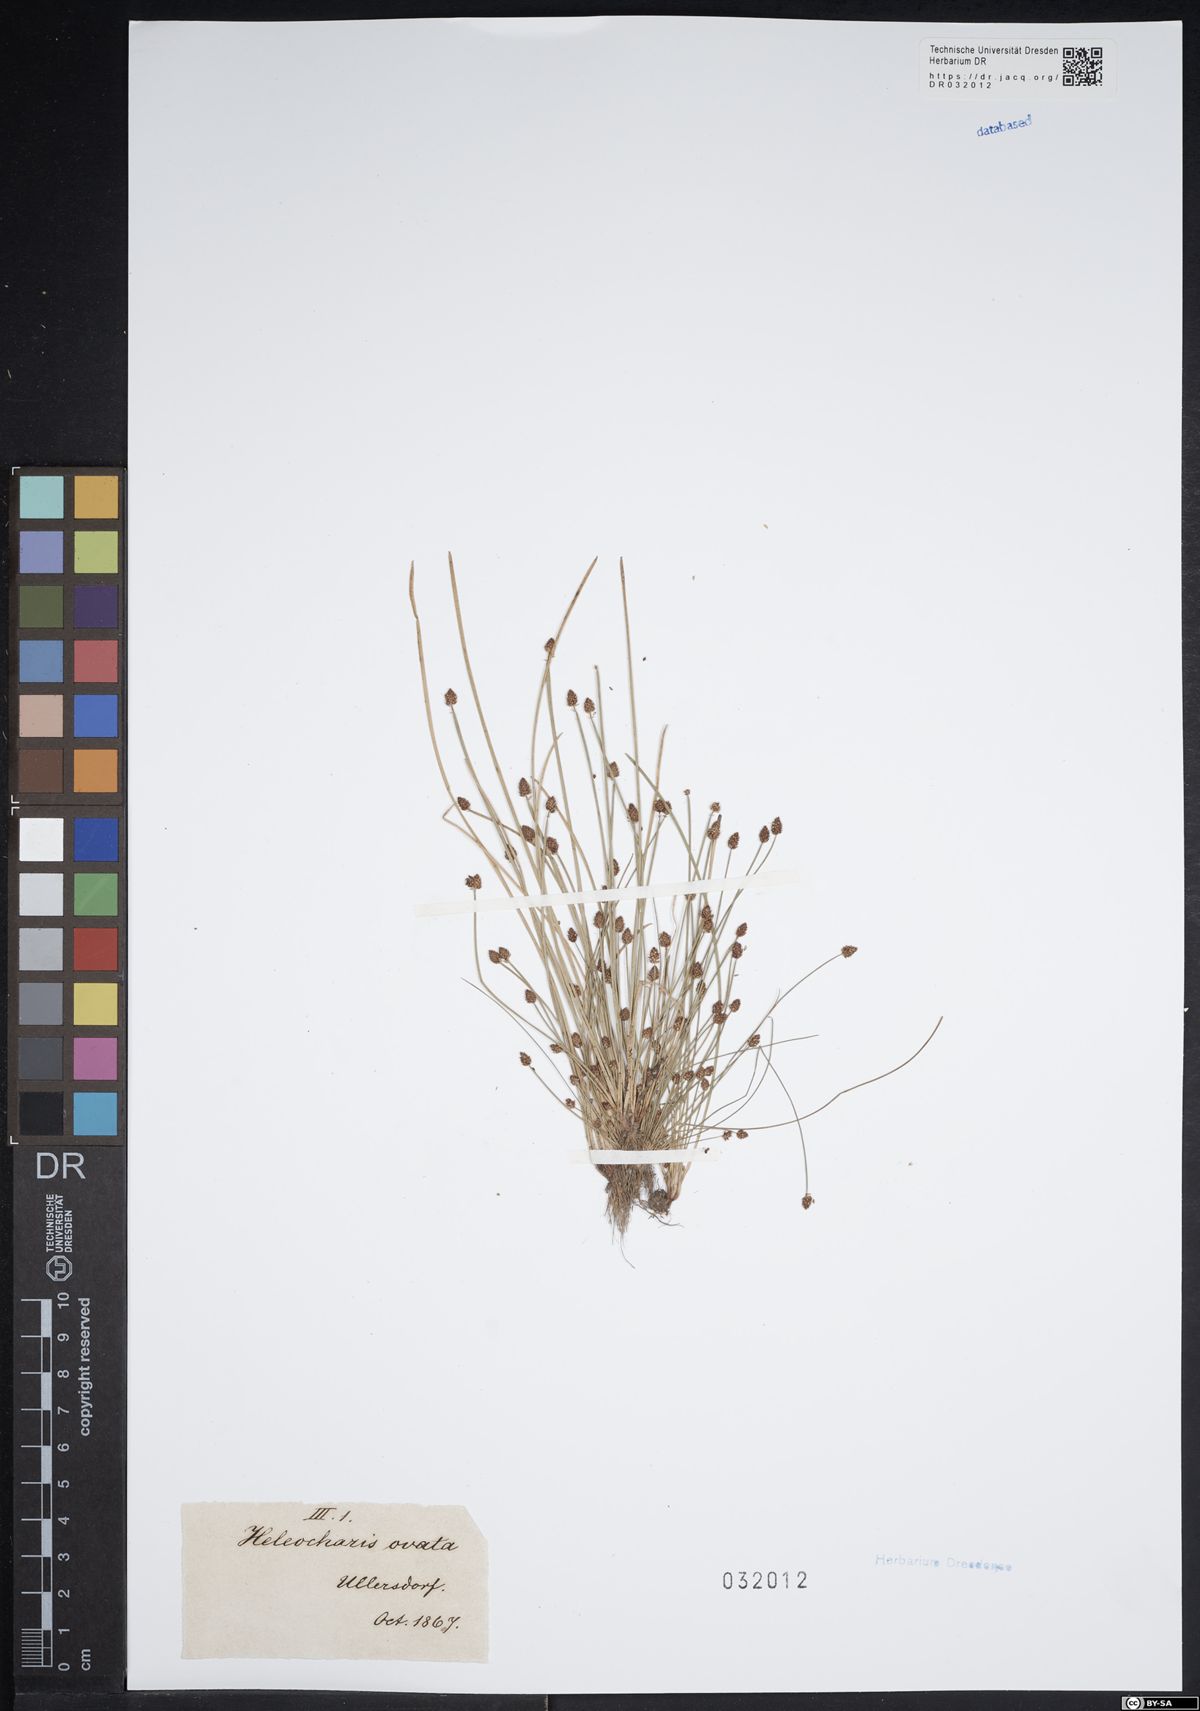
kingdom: Plantae
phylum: Tracheophyta
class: Liliopsida
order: Poales
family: Cyperaceae
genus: Eleocharis
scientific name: Eleocharis ovata
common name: Oval spike-rush
